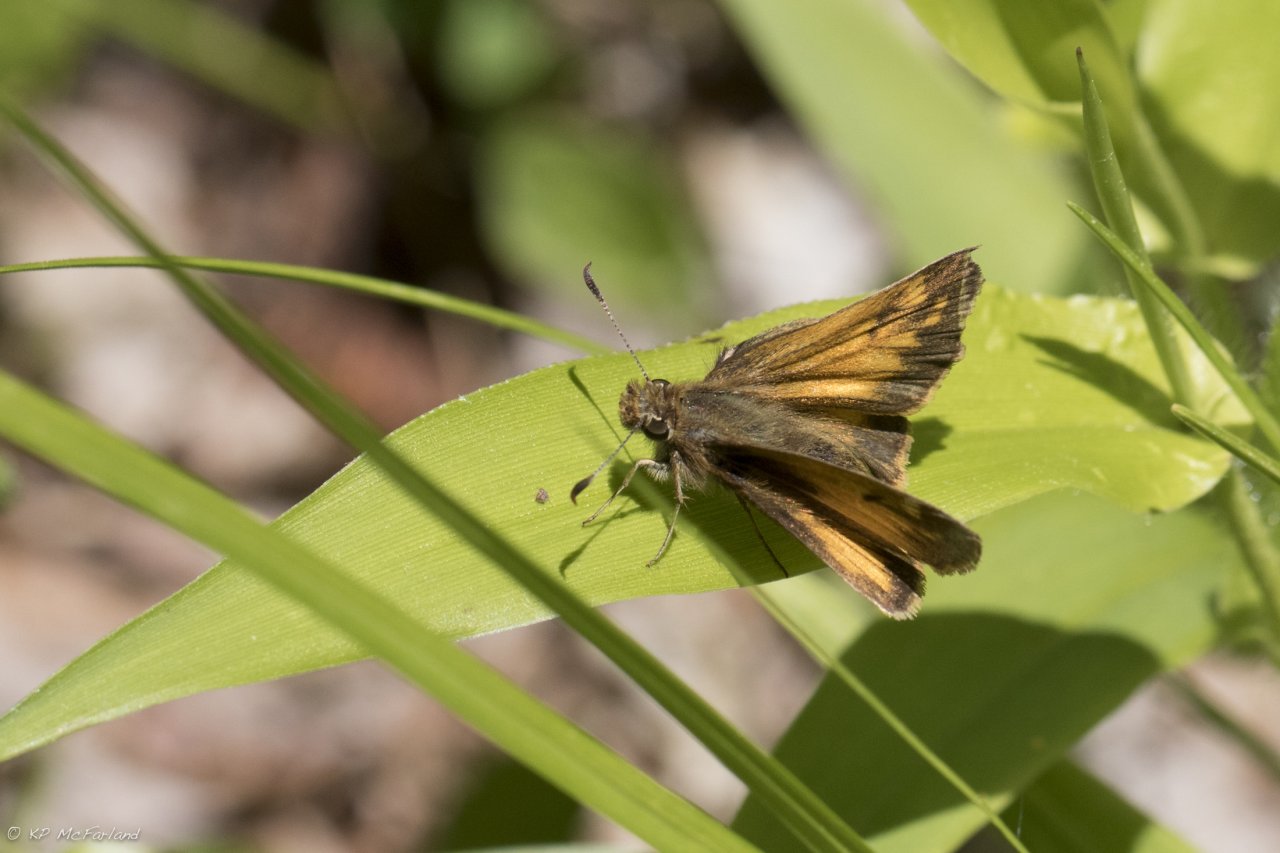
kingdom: Animalia
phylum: Arthropoda
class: Insecta
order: Lepidoptera
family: Hesperiidae
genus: Lon
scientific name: Lon hobomok
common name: Hobomok Skipper
